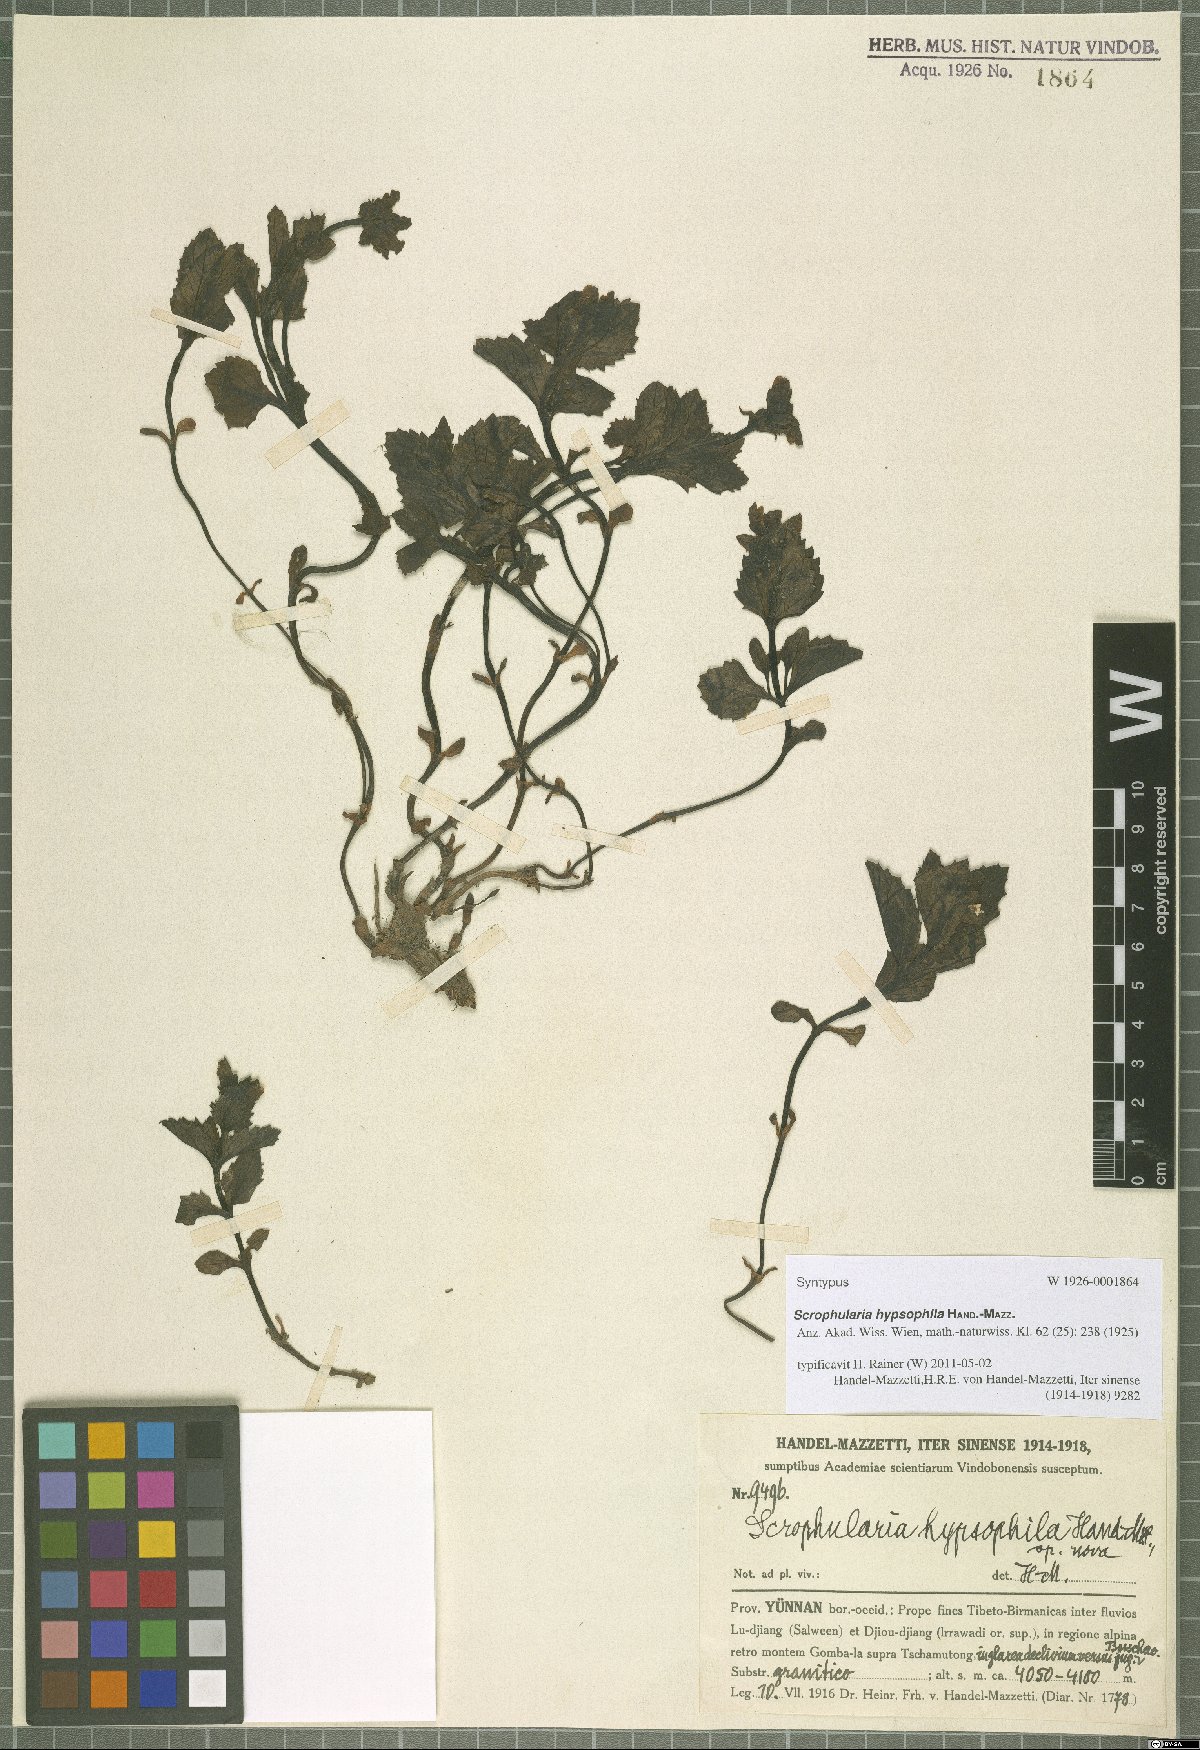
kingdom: Plantae
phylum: Tracheophyta
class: Magnoliopsida
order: Lamiales
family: Scrophulariaceae
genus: Scrophularia
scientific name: Scrophularia hypsophila
